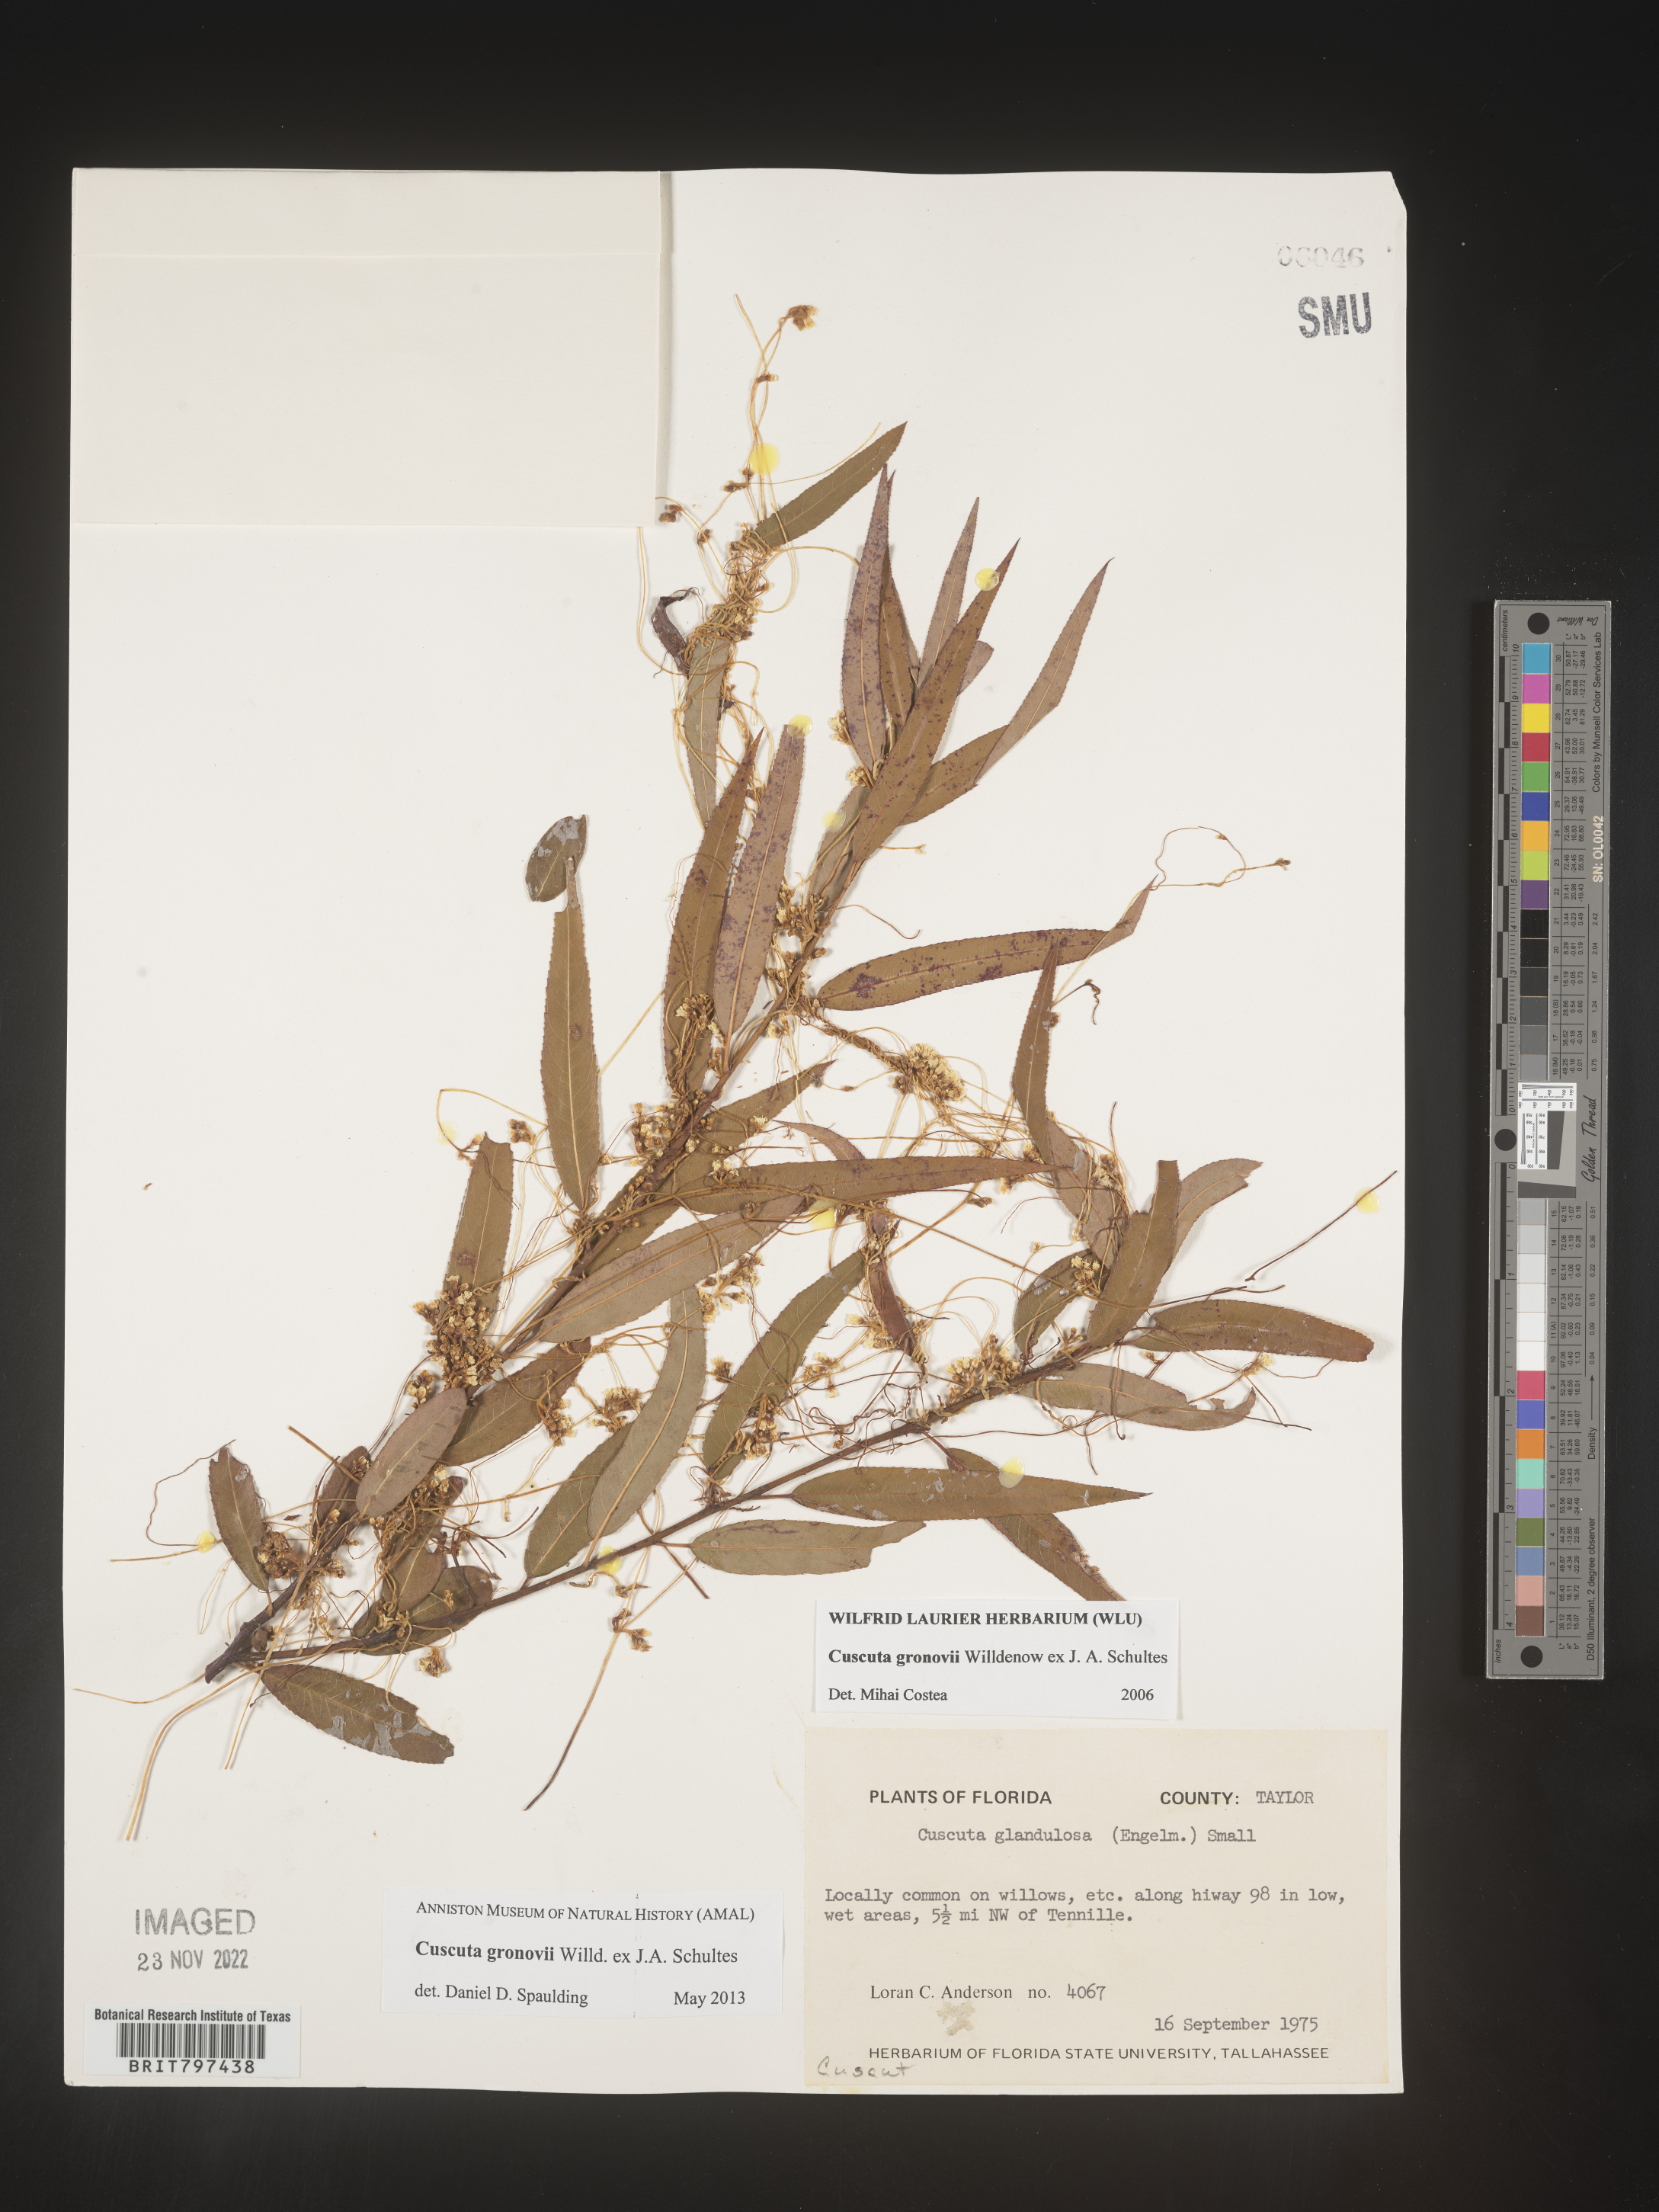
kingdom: Plantae
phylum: Tracheophyta
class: Magnoliopsida
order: Solanales
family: Convolvulaceae
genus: Cuscuta
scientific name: Cuscuta gronovii
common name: Common dodder
